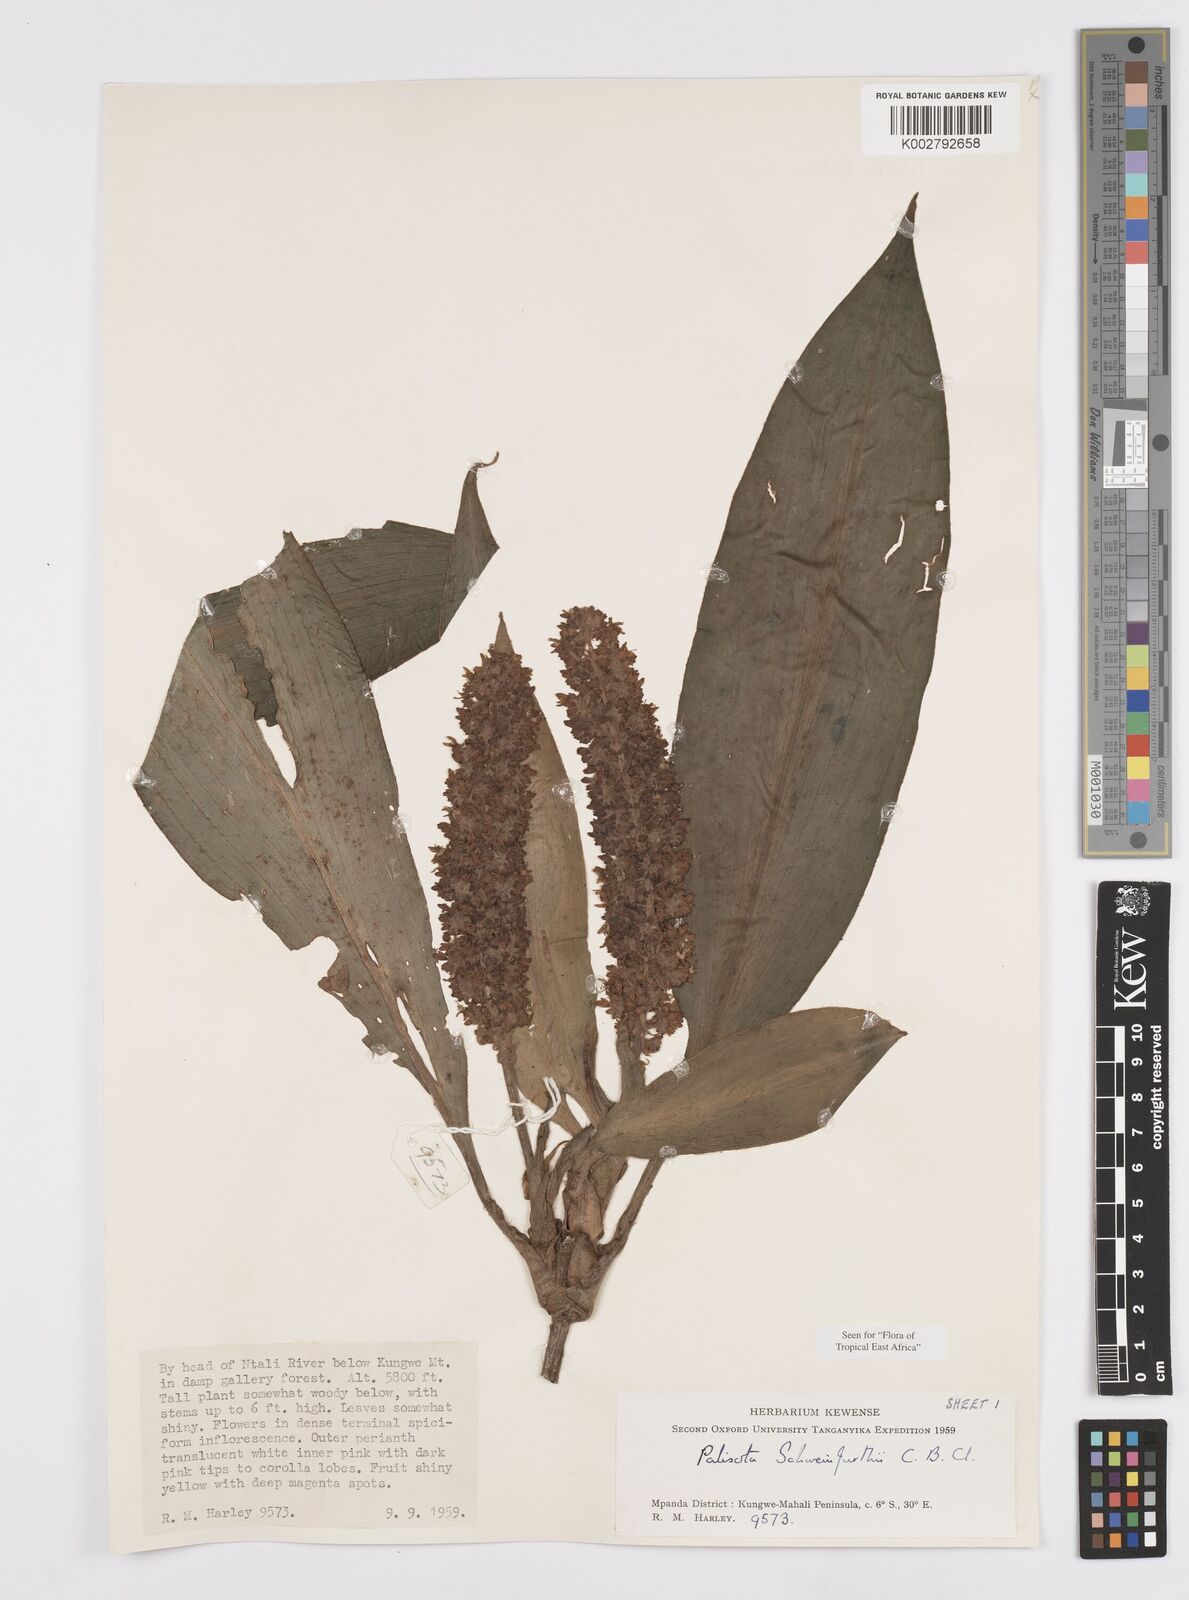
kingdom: Plantae
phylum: Tracheophyta
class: Liliopsida
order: Commelinales
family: Commelinaceae
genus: Palisota
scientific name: Palisota schweinfurthii
